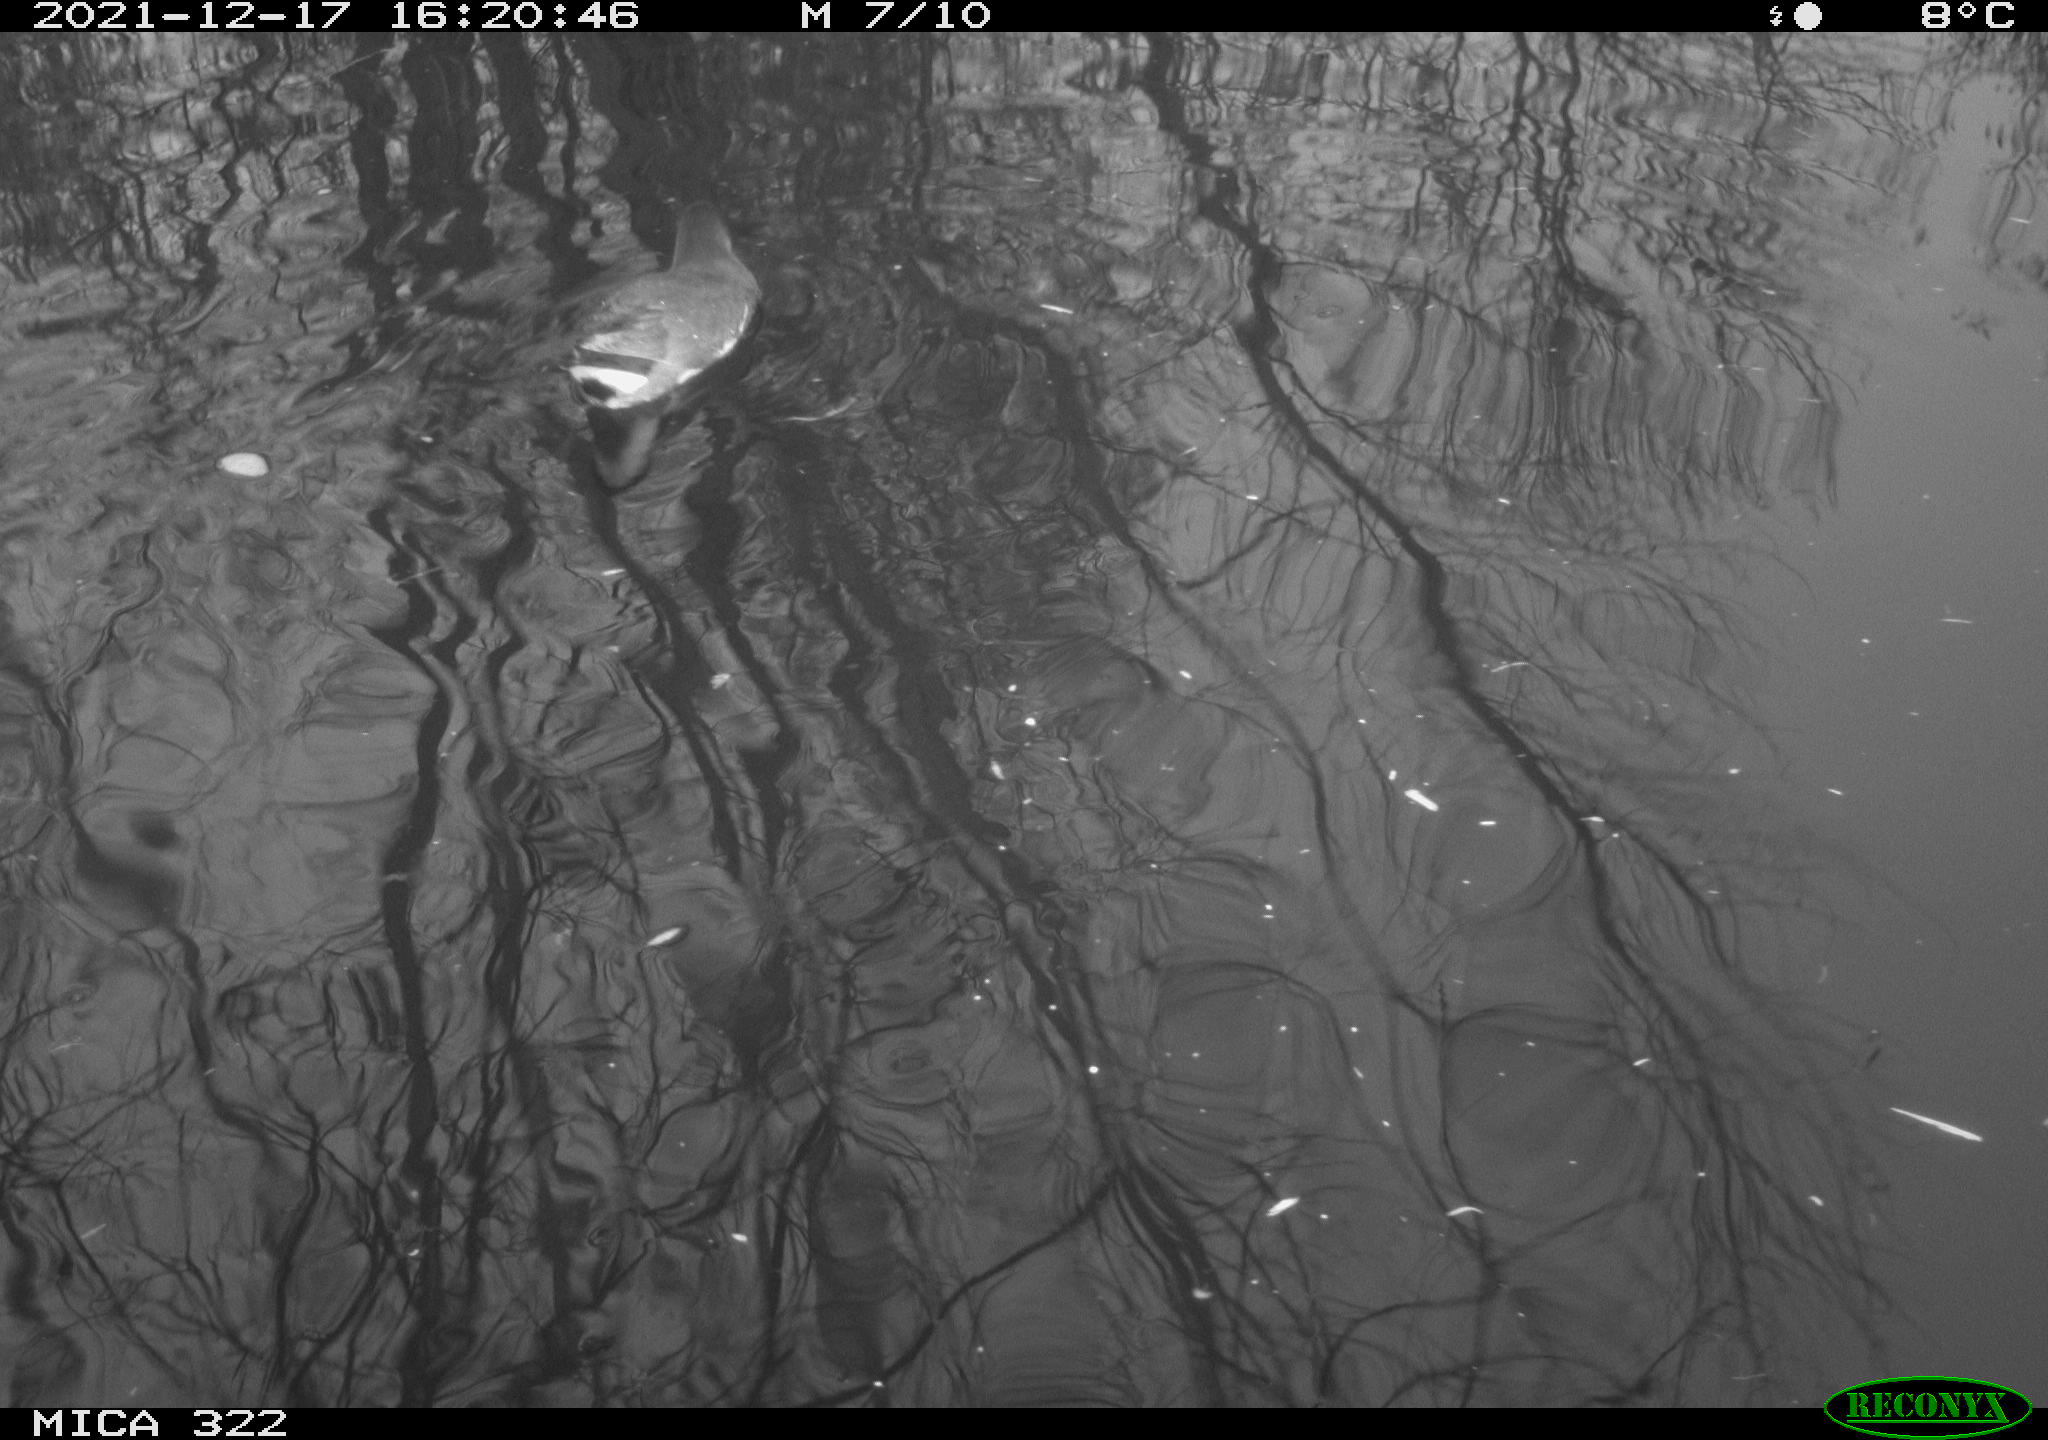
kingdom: Animalia
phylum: Chordata
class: Aves
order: Gruiformes
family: Rallidae
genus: Gallinula
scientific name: Gallinula chloropus
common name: Common moorhen
